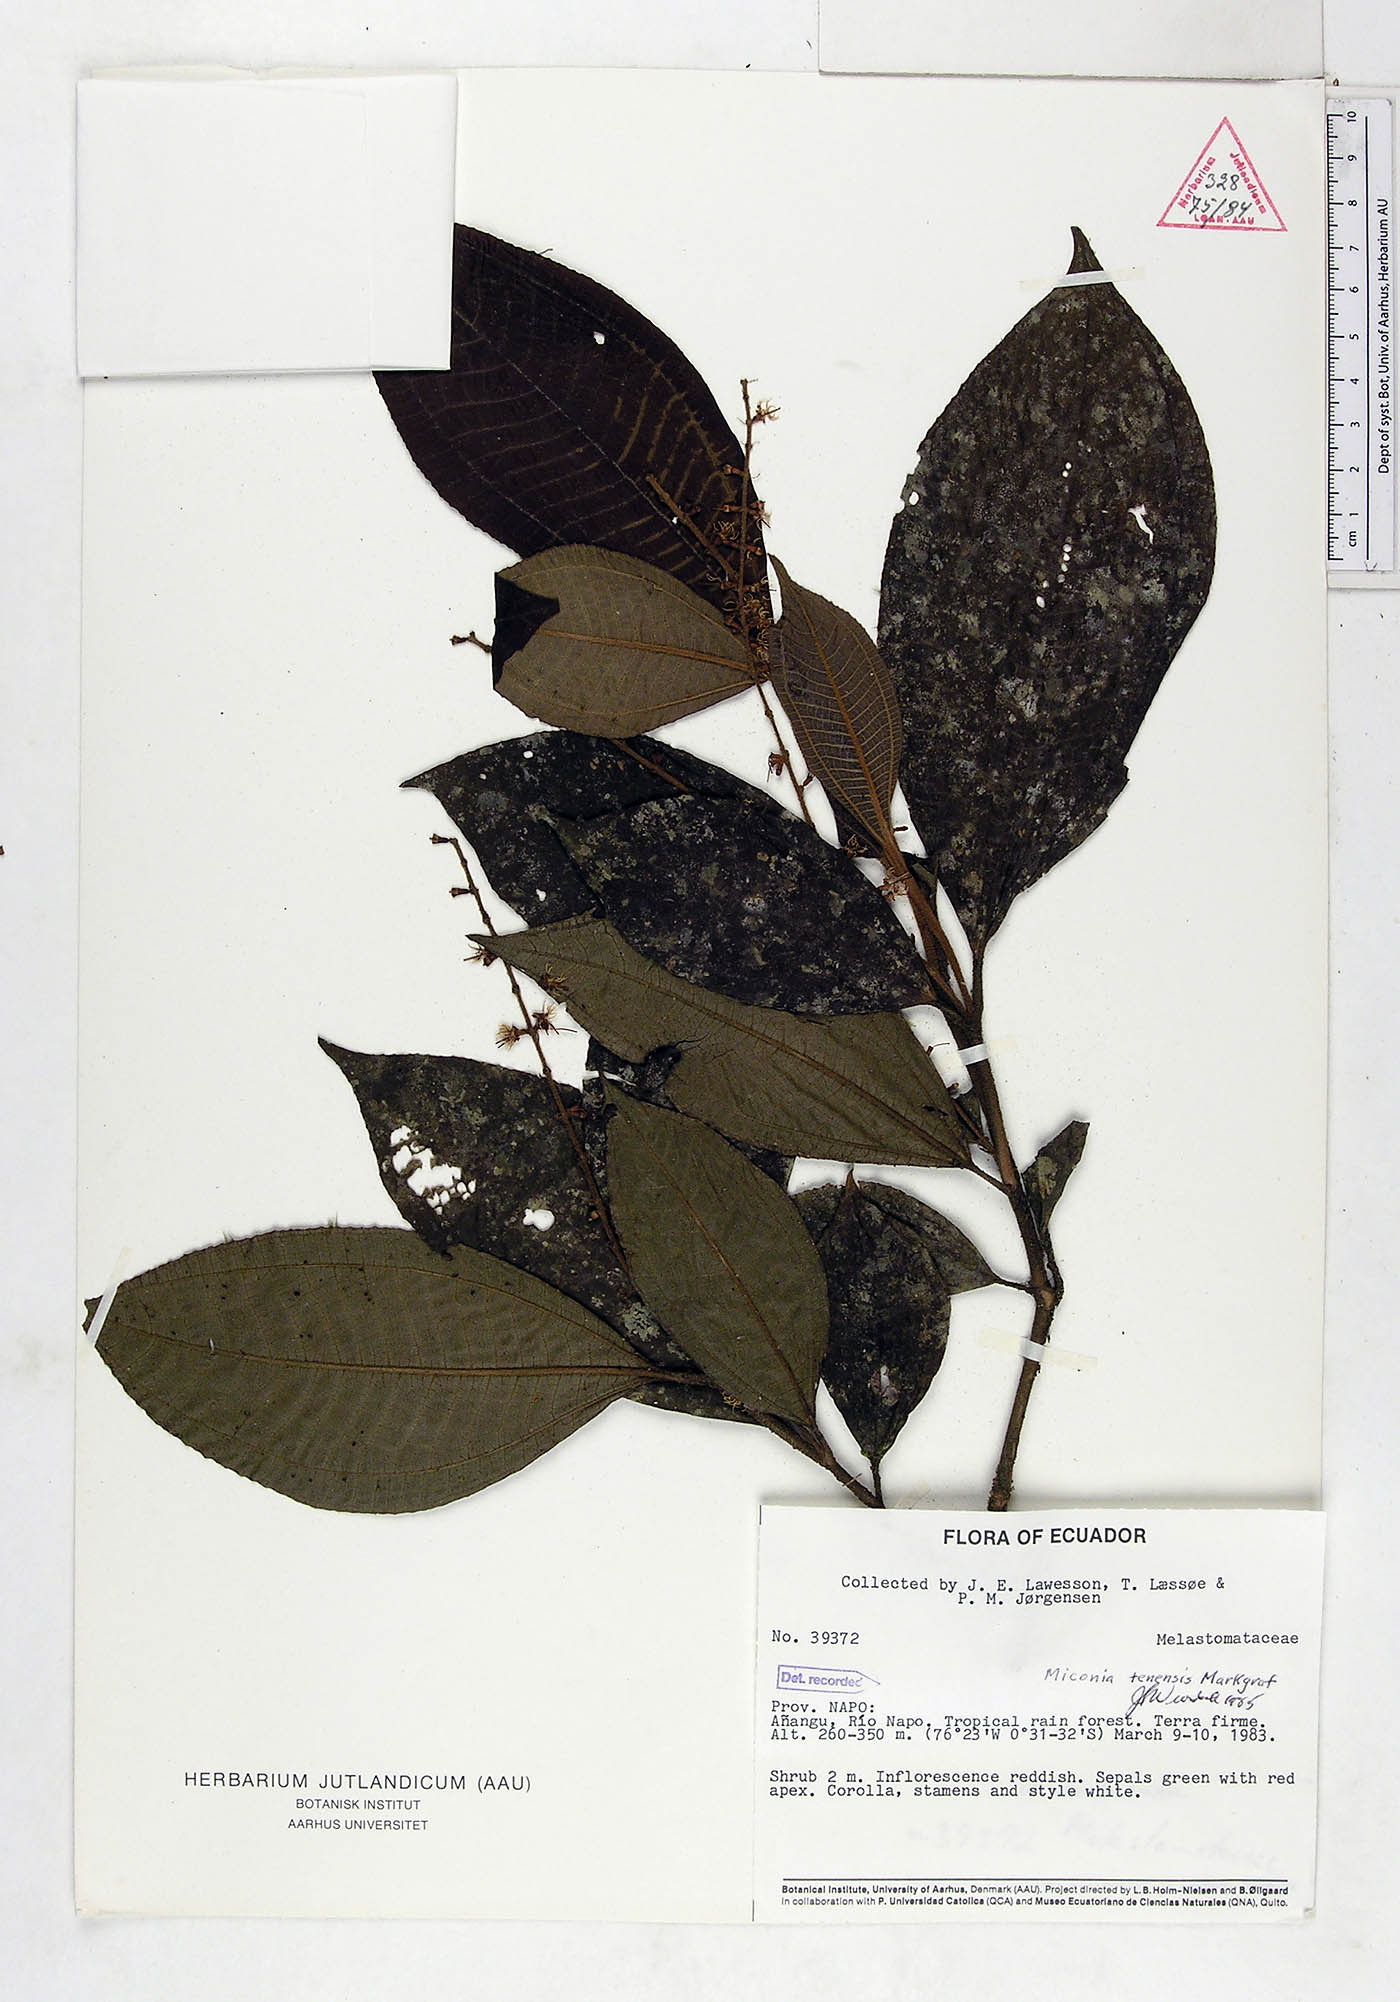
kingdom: Plantae
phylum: Tracheophyta
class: Magnoliopsida
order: Myrtales
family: Melastomataceae
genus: Miconia
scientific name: Miconia tenensis
